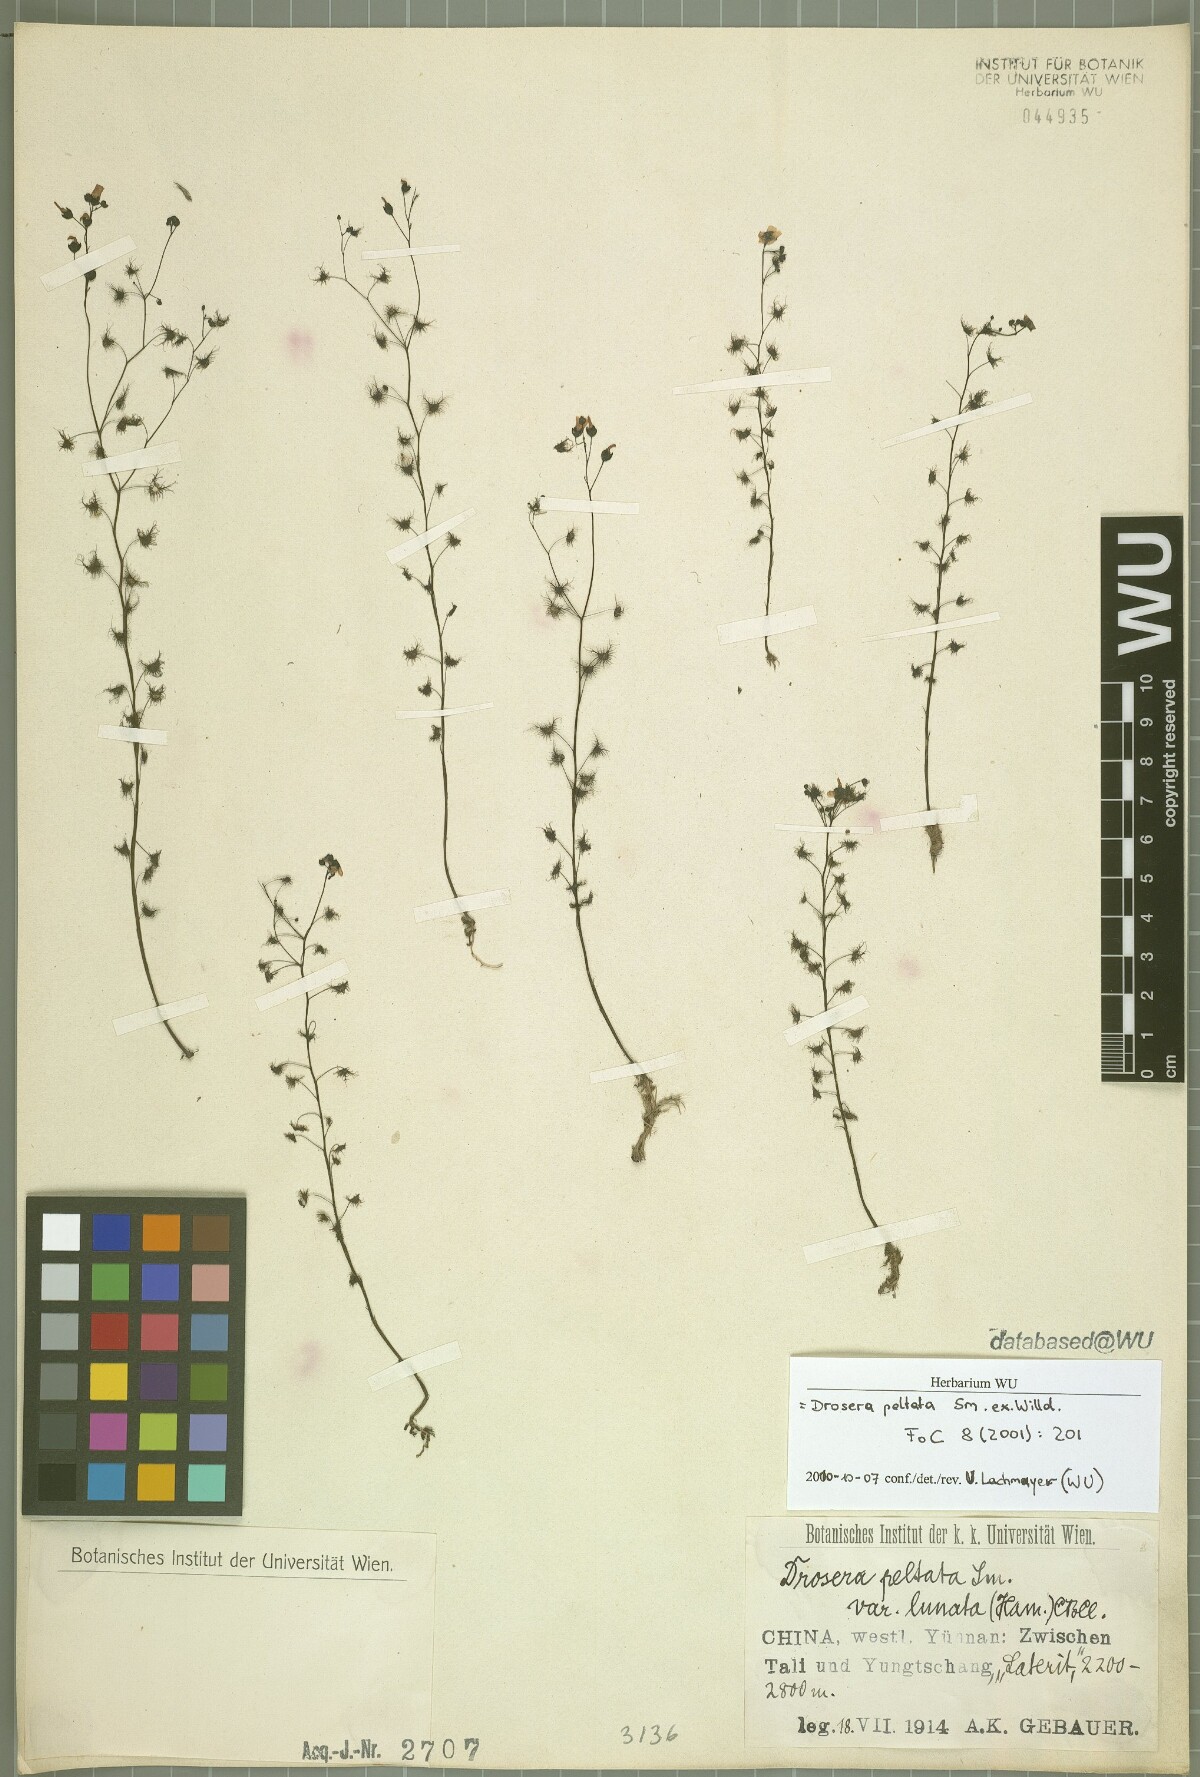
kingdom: Plantae
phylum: Tracheophyta
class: Magnoliopsida
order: Caryophyllales
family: Droseraceae
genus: Drosera
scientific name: Drosera peltata
